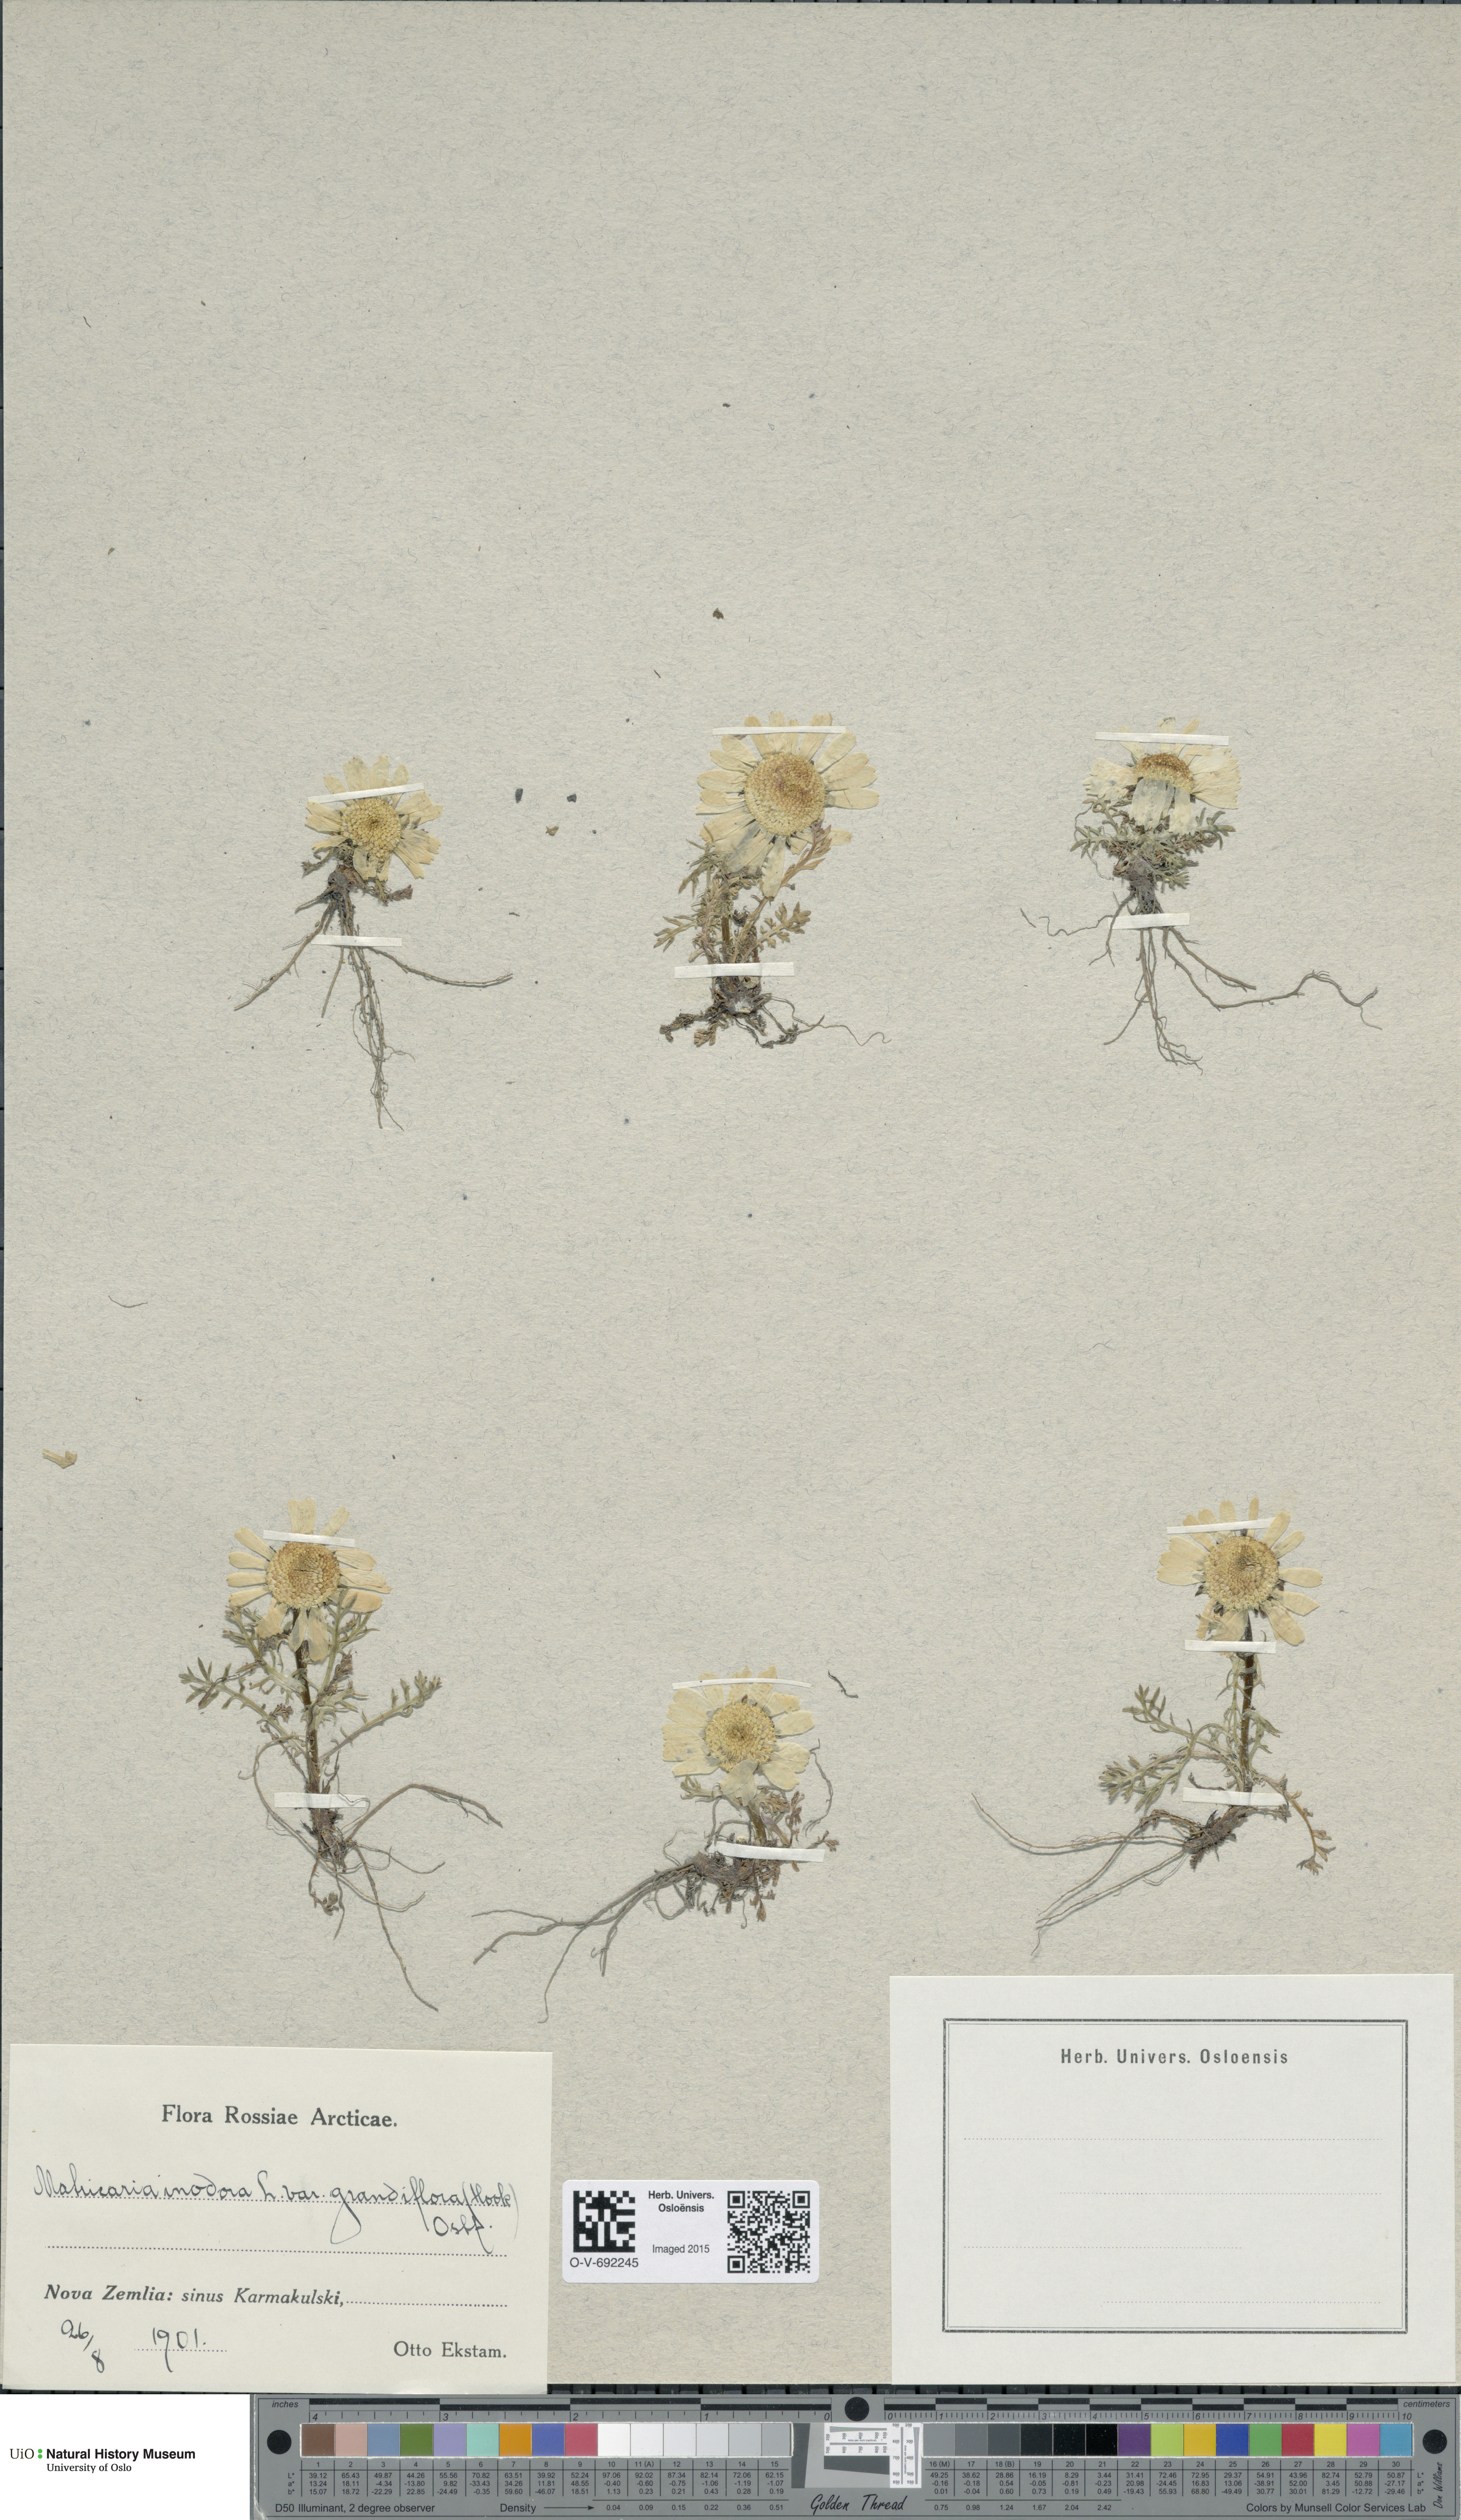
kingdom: Plantae
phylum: Tracheophyta
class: Magnoliopsida
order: Asterales
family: Asteraceae
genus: Tripleurospermum
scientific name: Tripleurospermum inodorum
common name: Scentless mayweed
